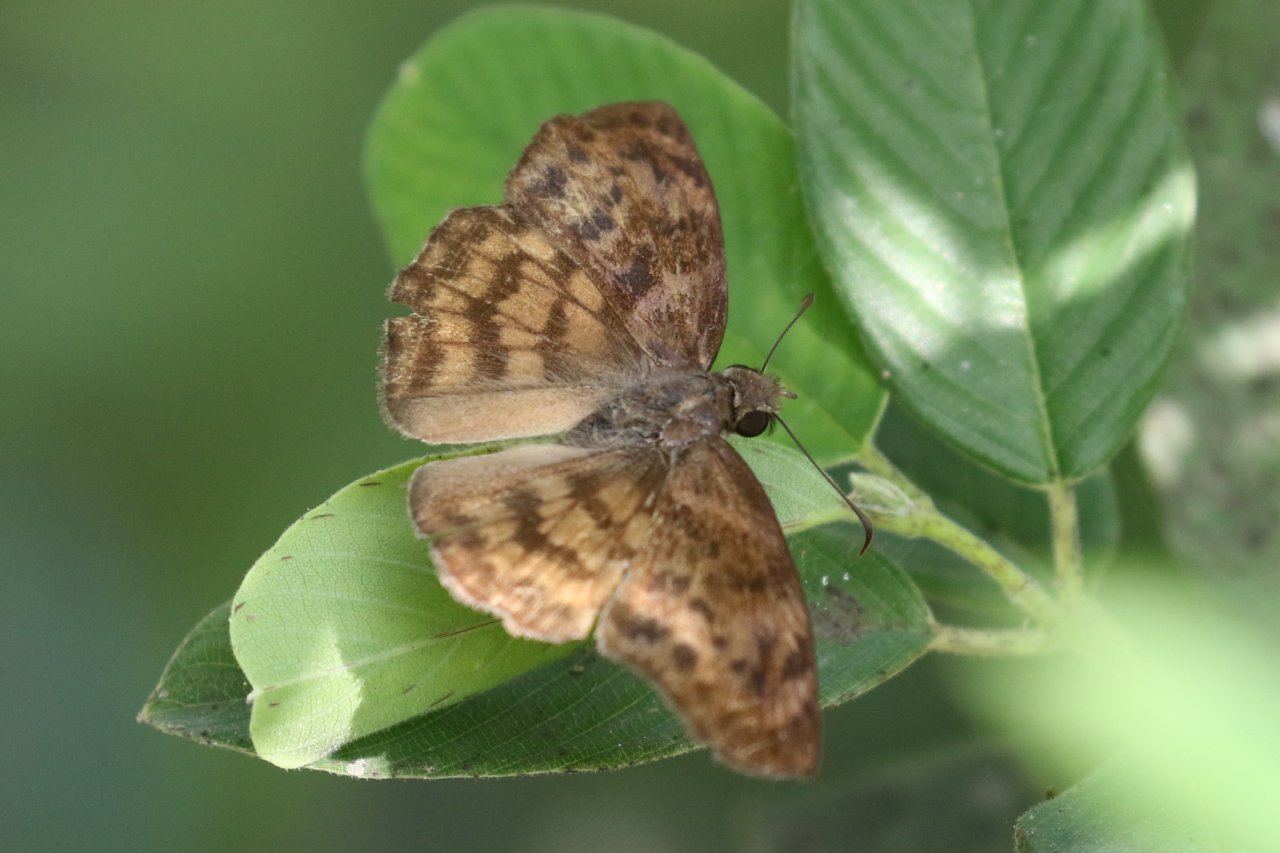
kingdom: Animalia
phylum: Arthropoda
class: Insecta
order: Lepidoptera
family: Hesperiidae
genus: Timochares
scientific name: Timochares ruptifasciata
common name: Brown-banded Skipper
